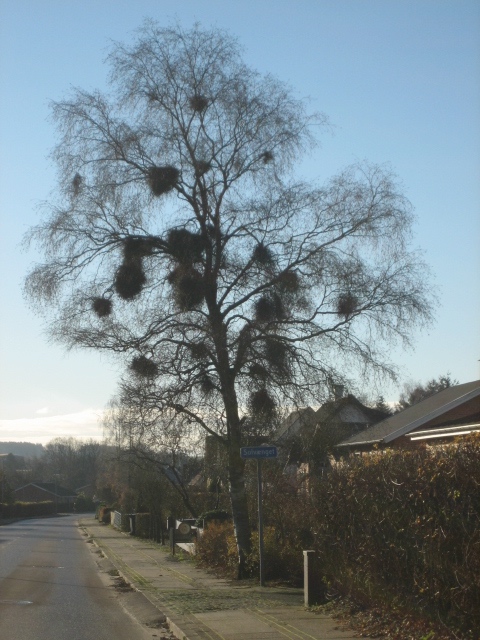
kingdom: Fungi
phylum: Ascomycota
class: Taphrinomycetes
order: Taphrinales
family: Taphrinaceae
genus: Taphrina
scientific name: Taphrina betulina
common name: hekse-sækdug
